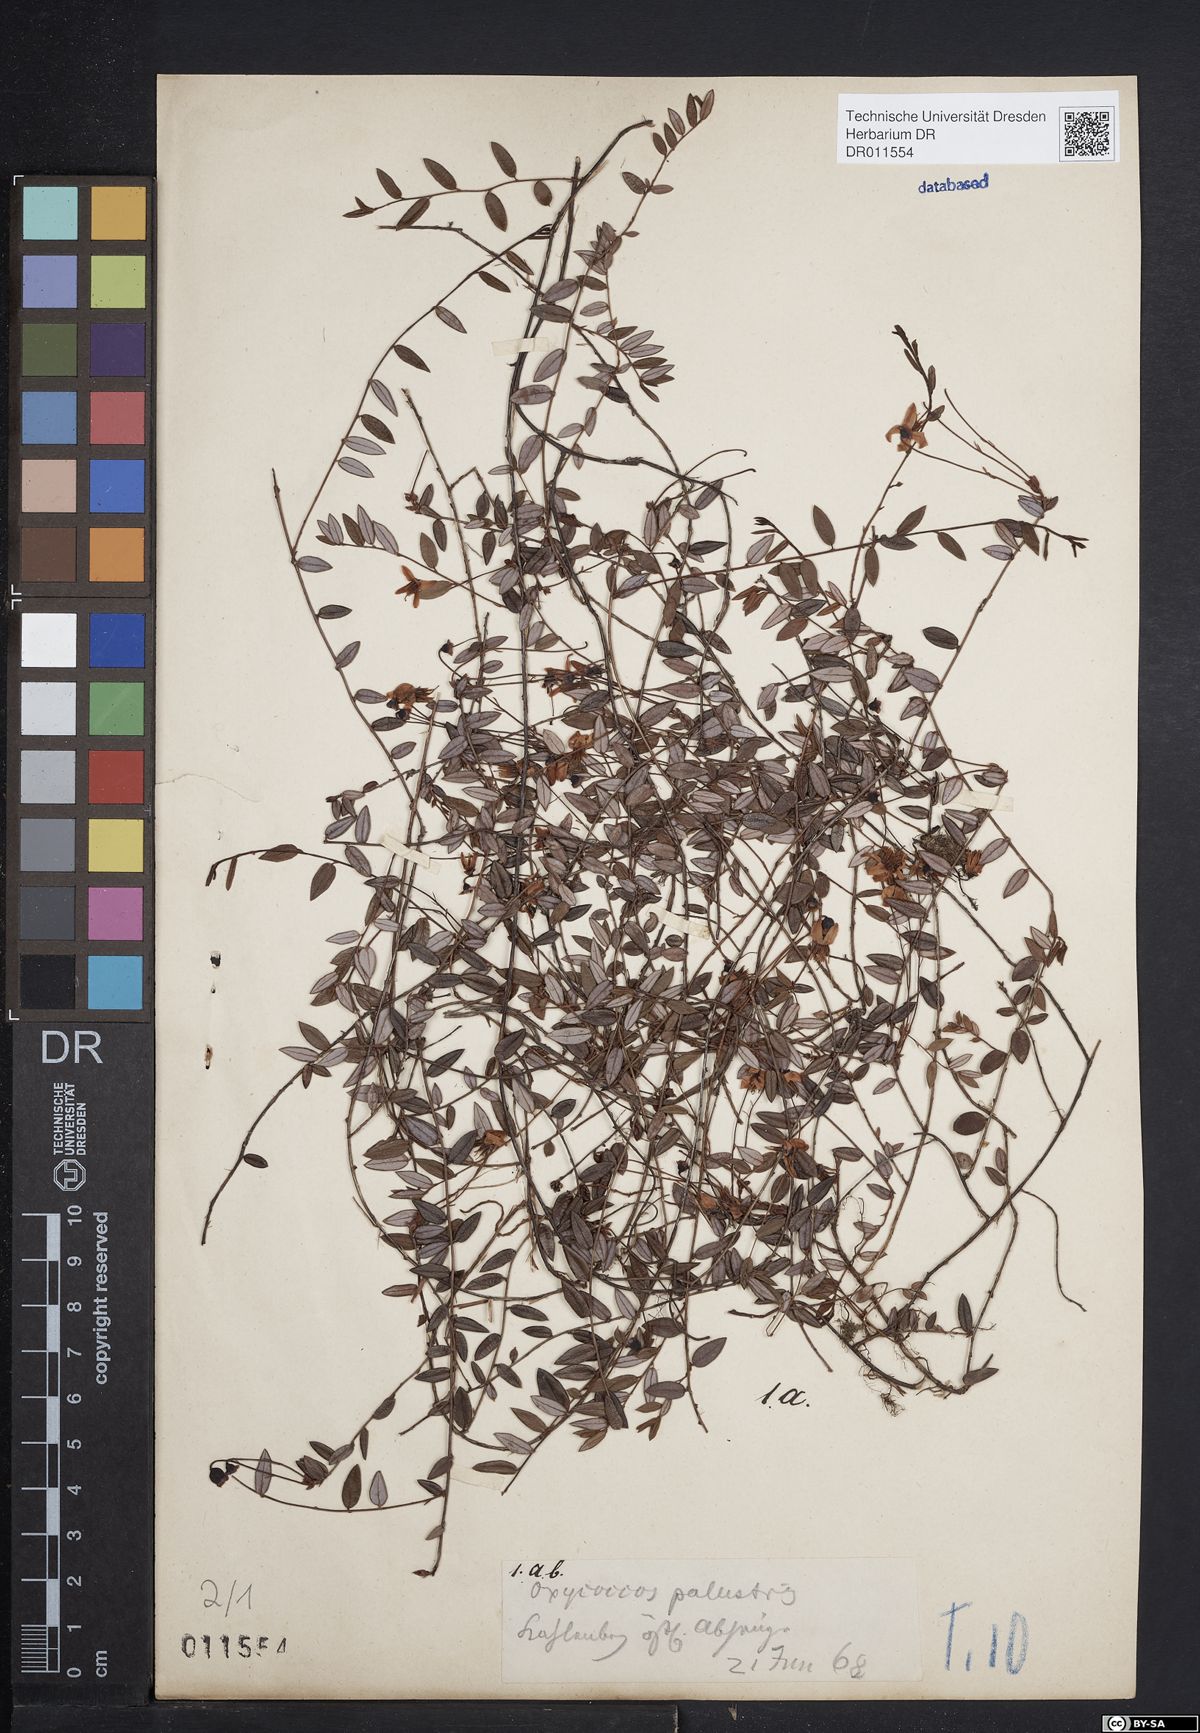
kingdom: Plantae
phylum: Tracheophyta
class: Magnoliopsida
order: Ericales
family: Ericaceae
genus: Vaccinium
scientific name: Vaccinium oxycoccos
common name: Cranberry
